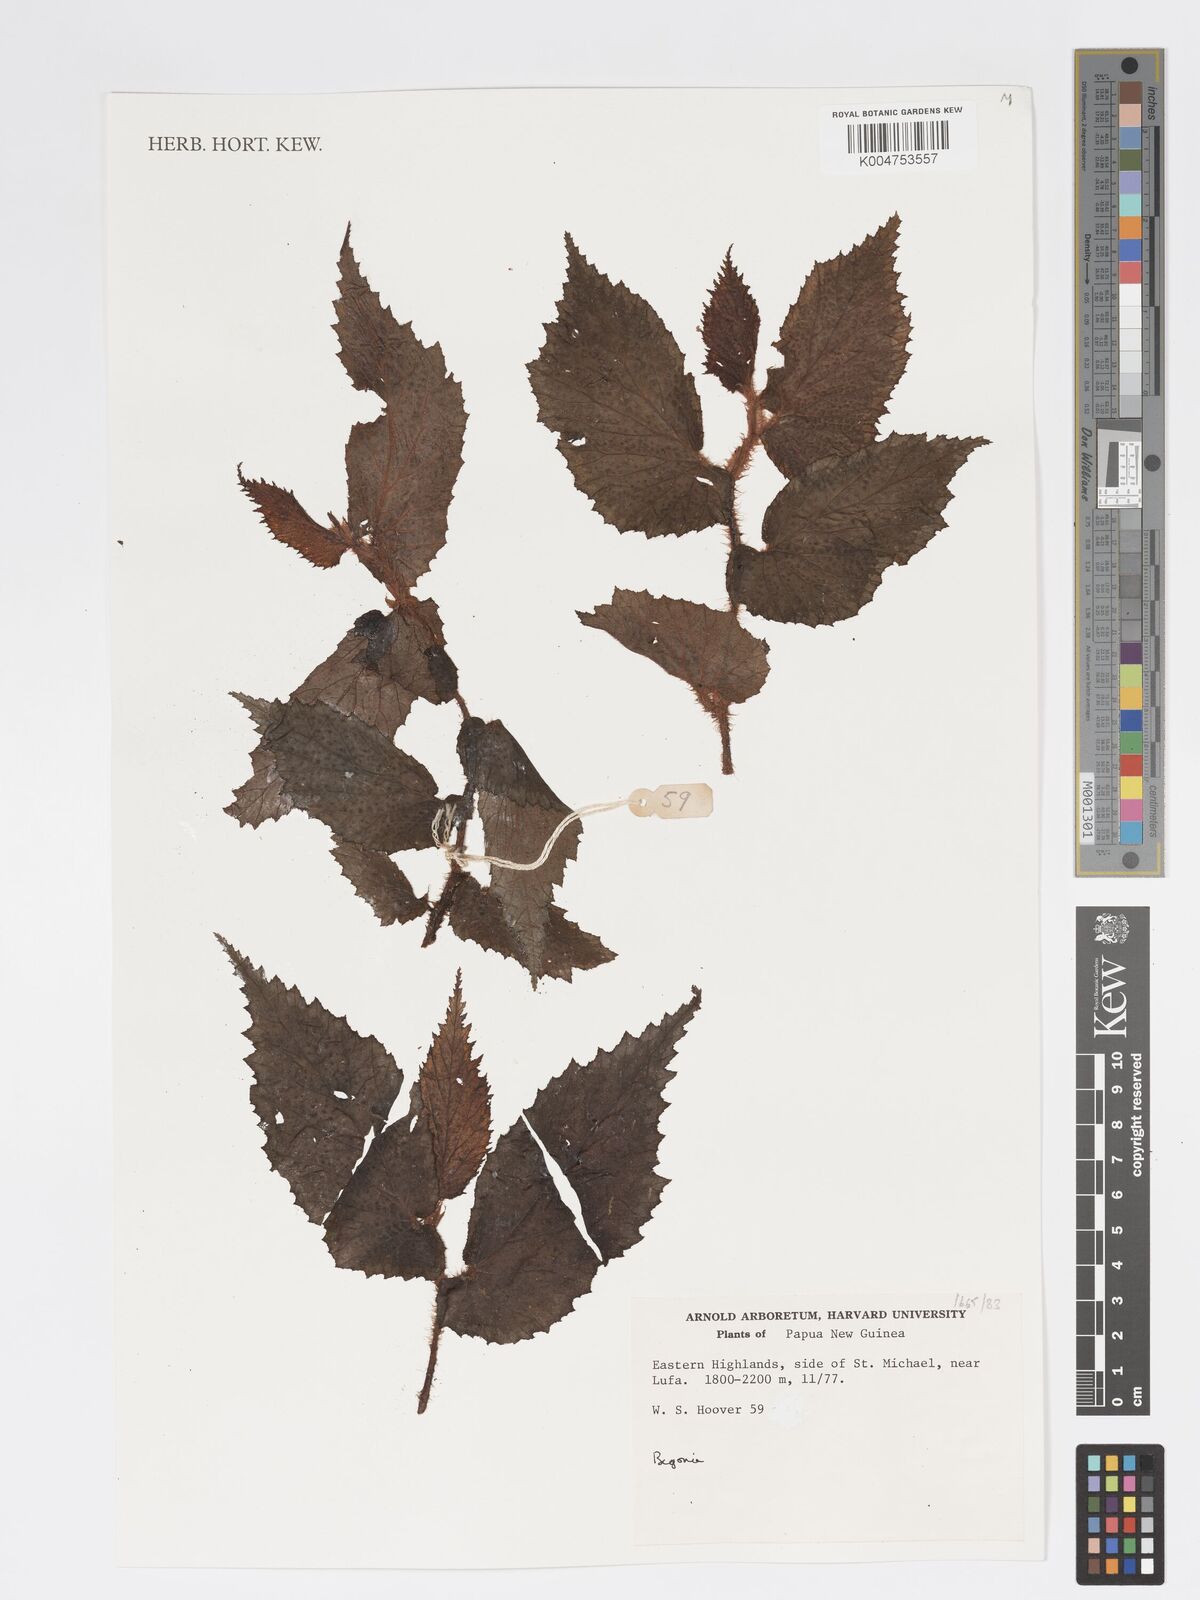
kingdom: Plantae
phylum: Tracheophyta
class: Magnoliopsida
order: Cucurbitales
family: Begoniaceae
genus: Begonia
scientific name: Begonia divaricata
